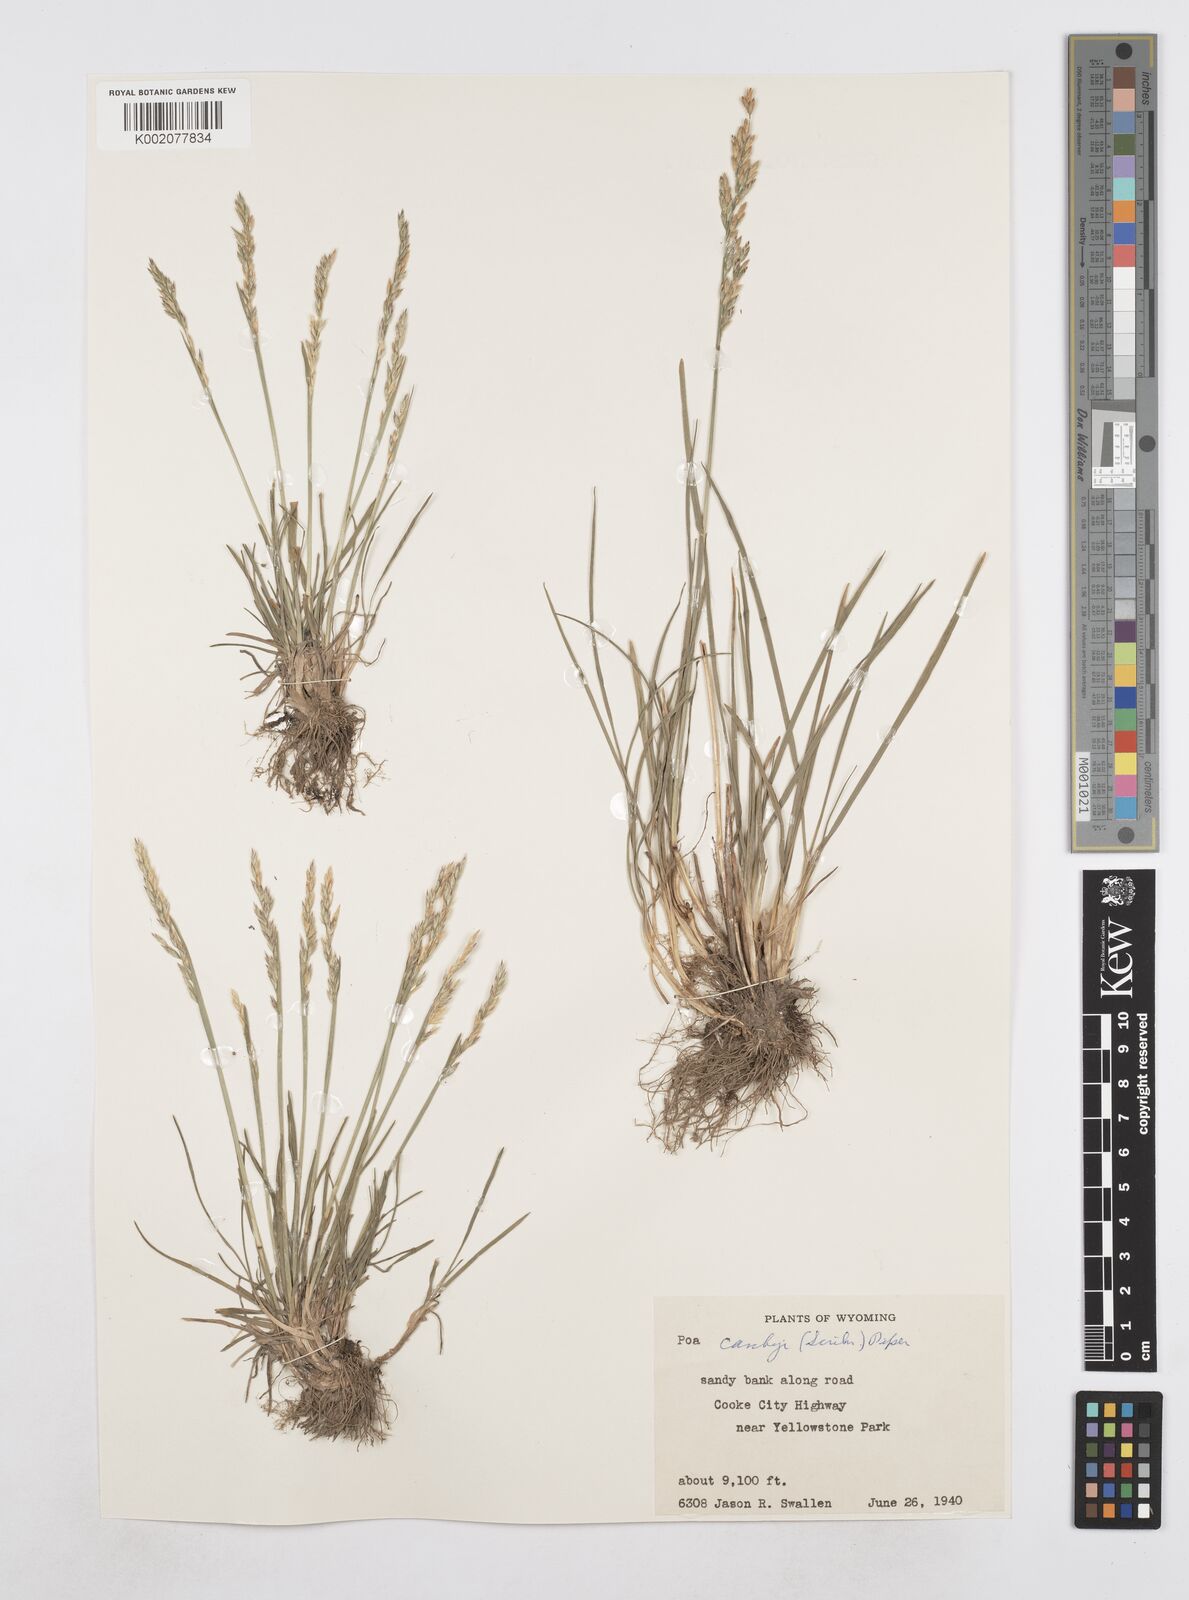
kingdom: Plantae
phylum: Tracheophyta
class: Liliopsida
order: Poales
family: Poaceae
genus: Poa
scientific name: Poa secunda
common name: Sandberg bluegrass
